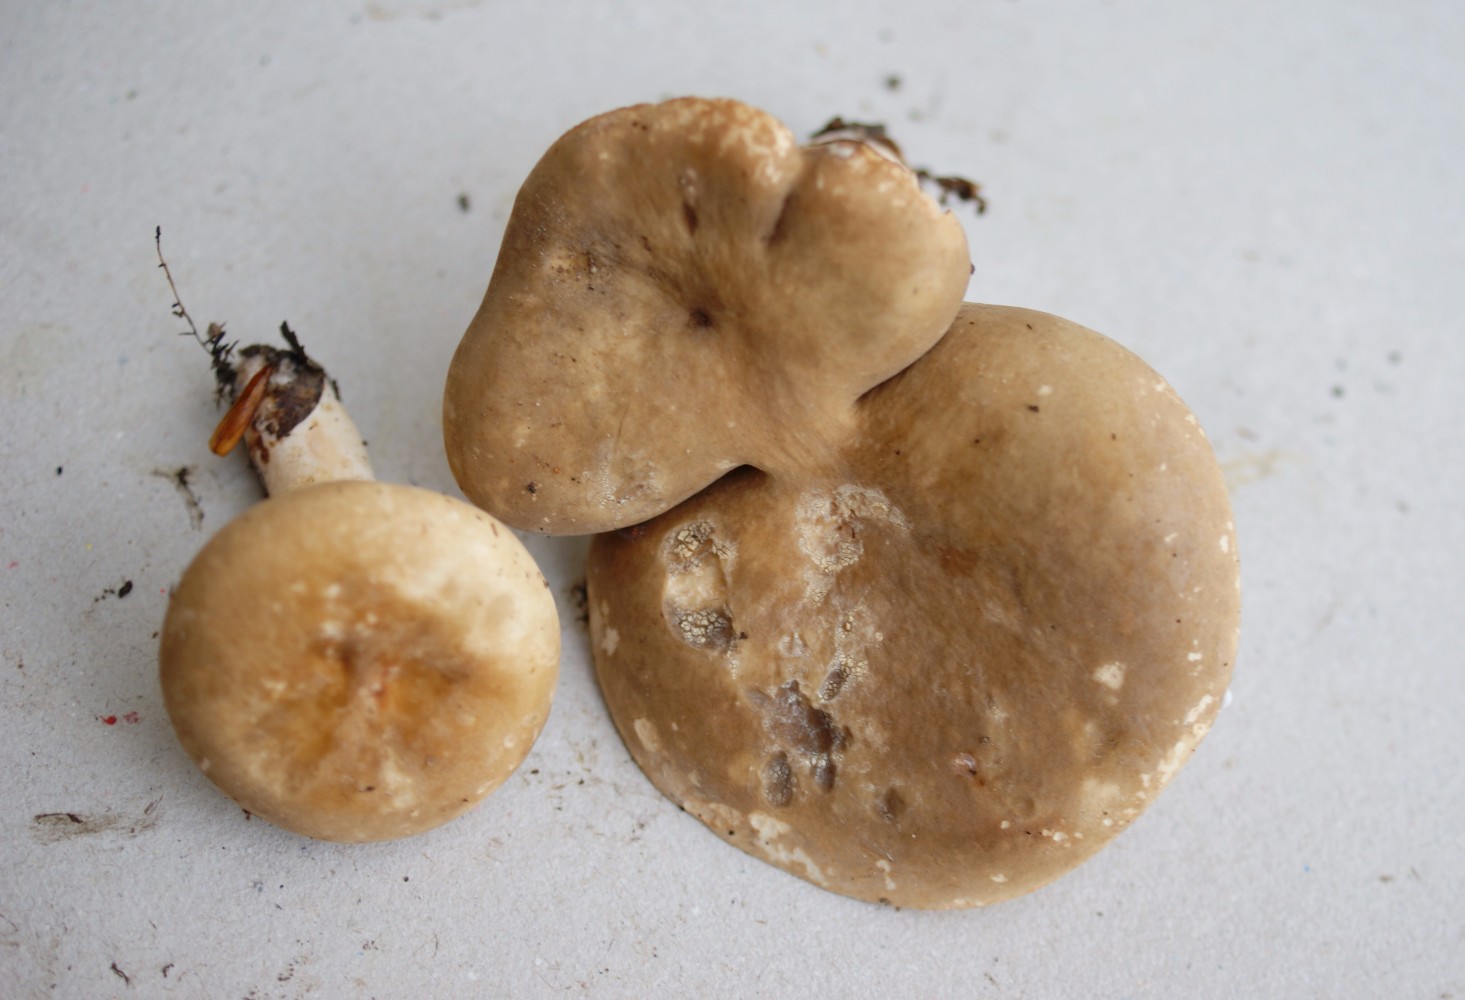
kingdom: Fungi
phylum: Basidiomycota
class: Agaricomycetes
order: Russulales
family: Russulaceae
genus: Lactarius
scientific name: Lactarius pterosporus
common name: vingesporet mælkehat
